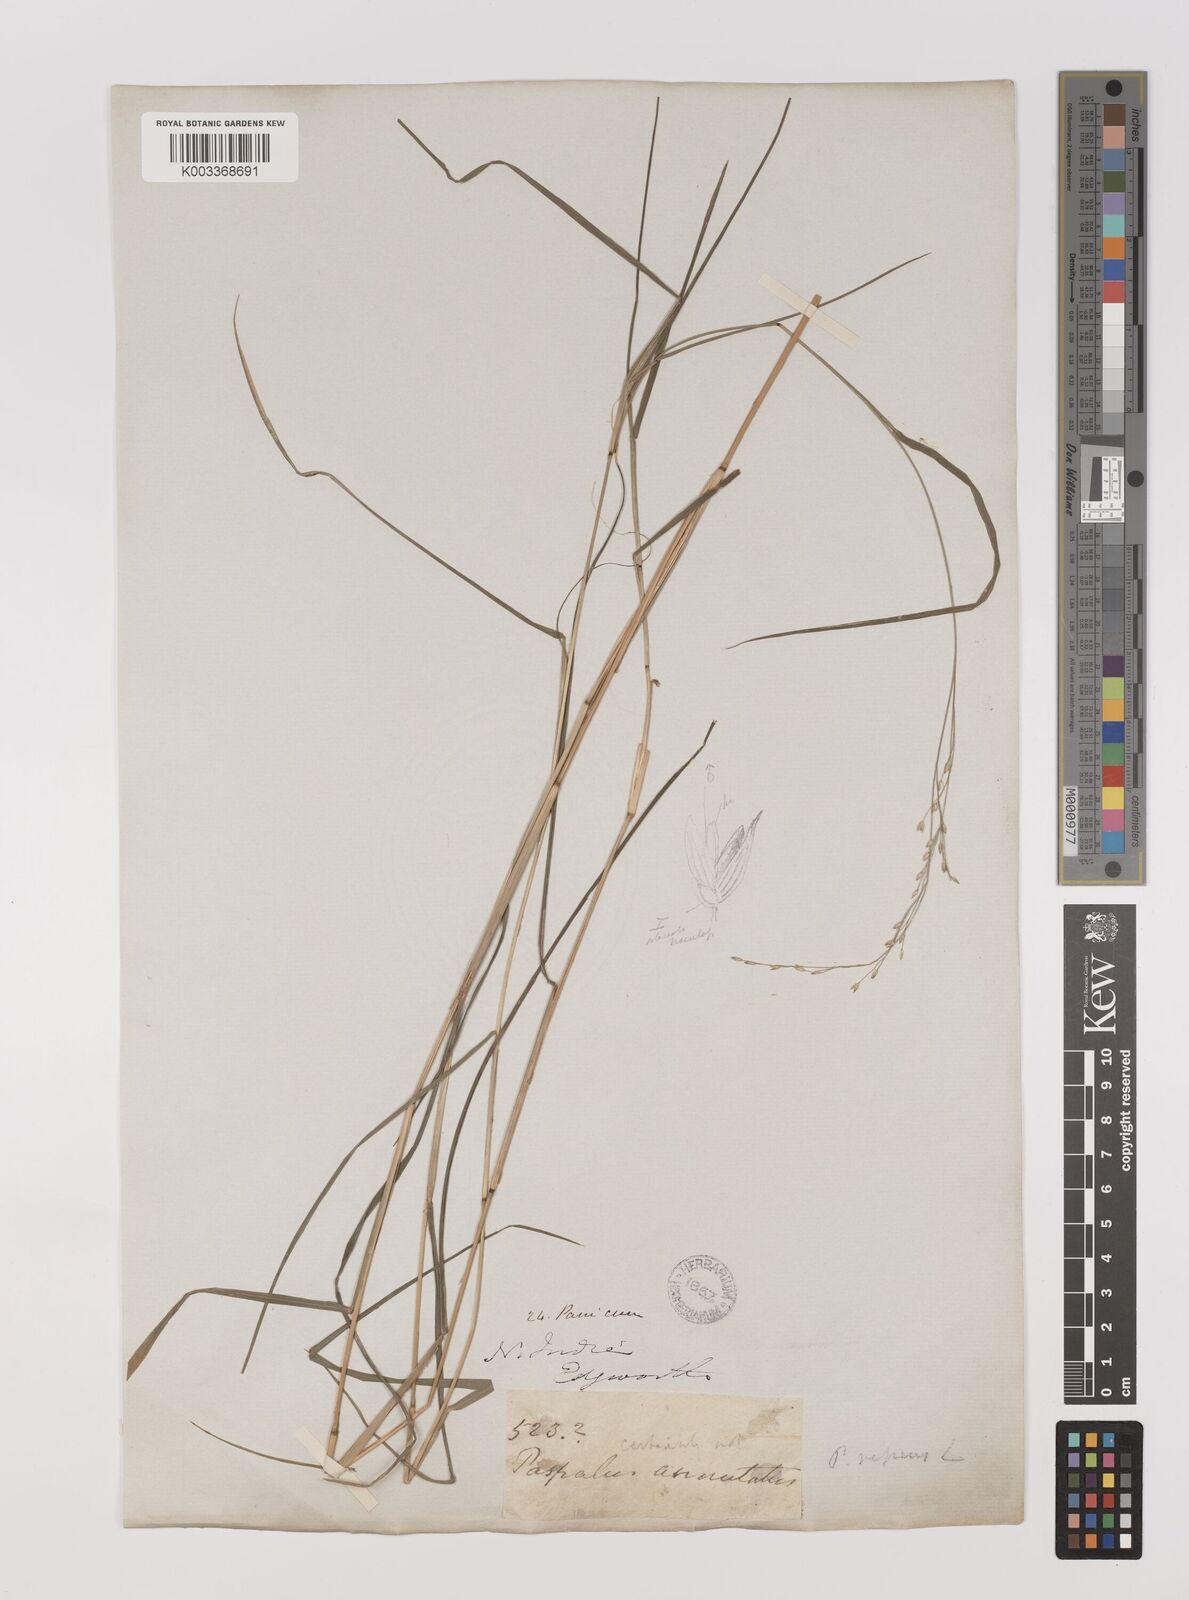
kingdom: Plantae
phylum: Tracheophyta
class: Liliopsida
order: Poales
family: Poaceae
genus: Panicum
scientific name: Panicum repens
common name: Torpedo grass
